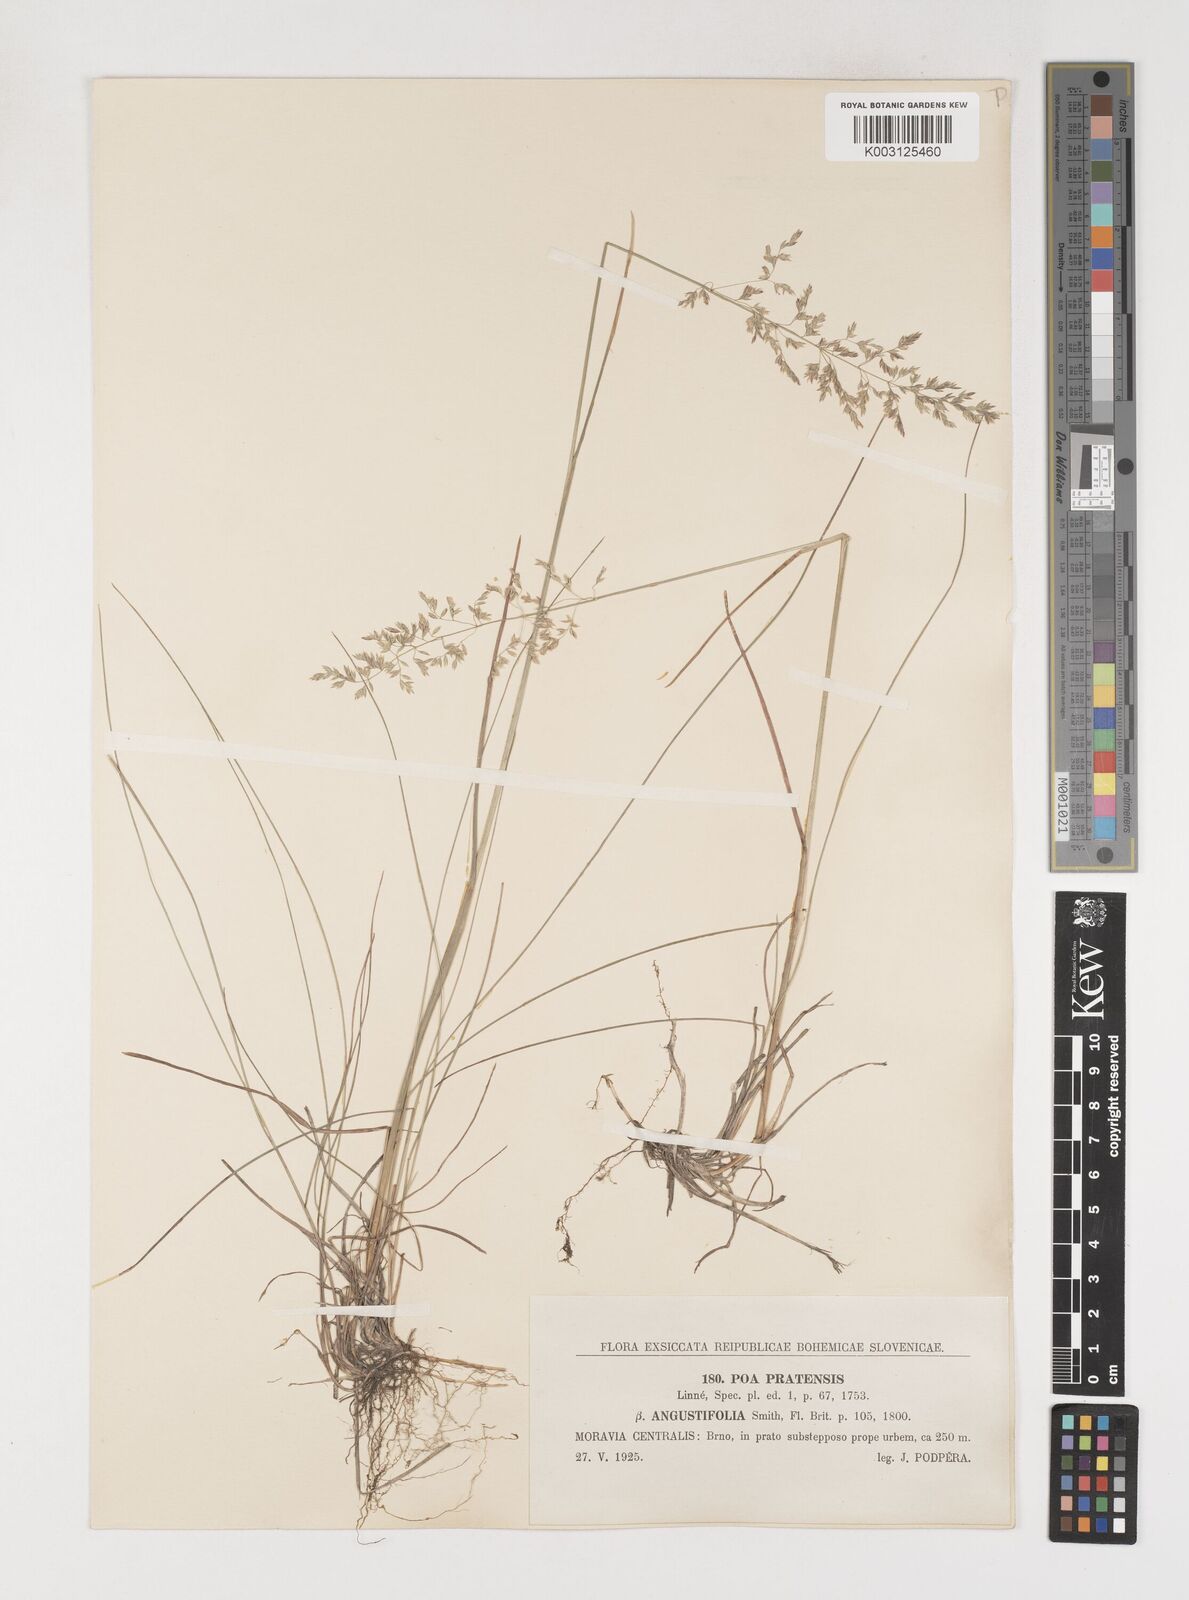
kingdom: Plantae
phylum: Tracheophyta
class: Liliopsida
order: Poales
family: Poaceae
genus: Poa
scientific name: Poa angustifolia
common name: Narrow-leaved meadow-grass
